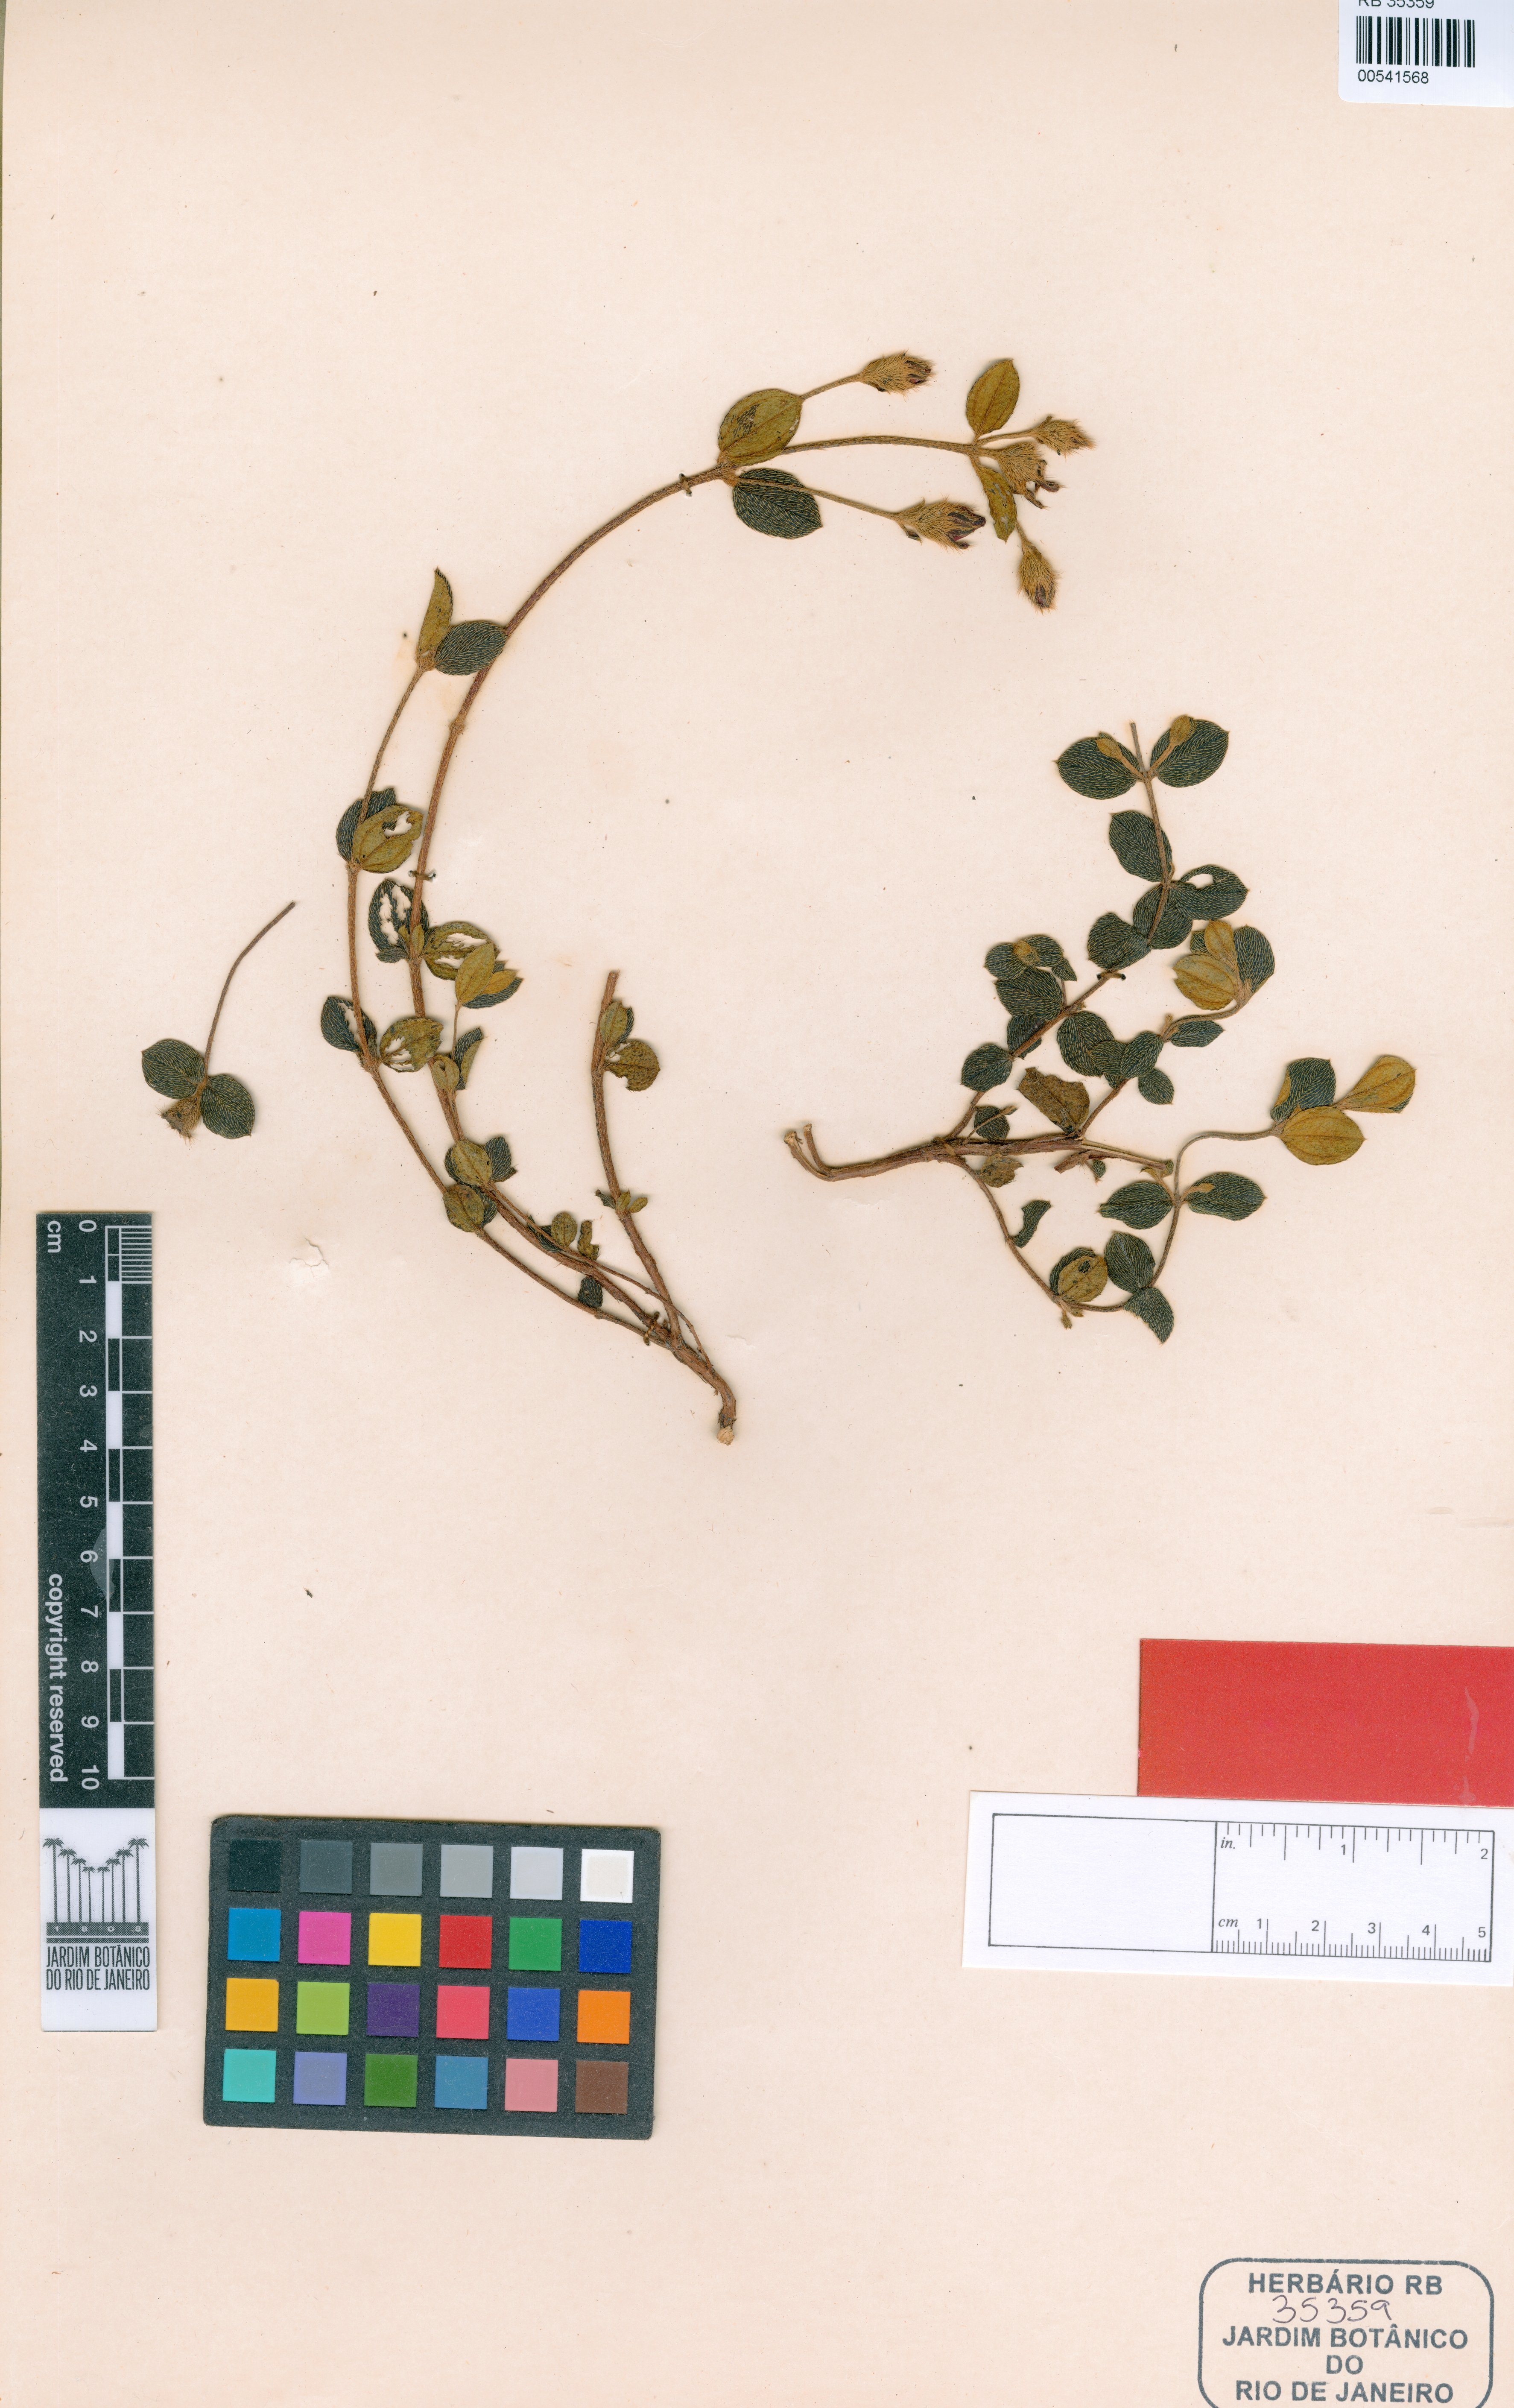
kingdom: Plantae
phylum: Tracheophyta
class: Magnoliopsida
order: Myrtales
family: Melastomataceae
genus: Pleroma
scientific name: Pleroma mello-barretoi
